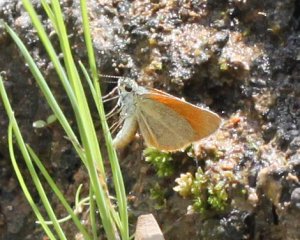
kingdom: Animalia
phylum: Arthropoda
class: Insecta
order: Lepidoptera
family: Hesperiidae
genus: Ancyloxypha
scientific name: Ancyloxypha arene
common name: Tropical Least Skipper
